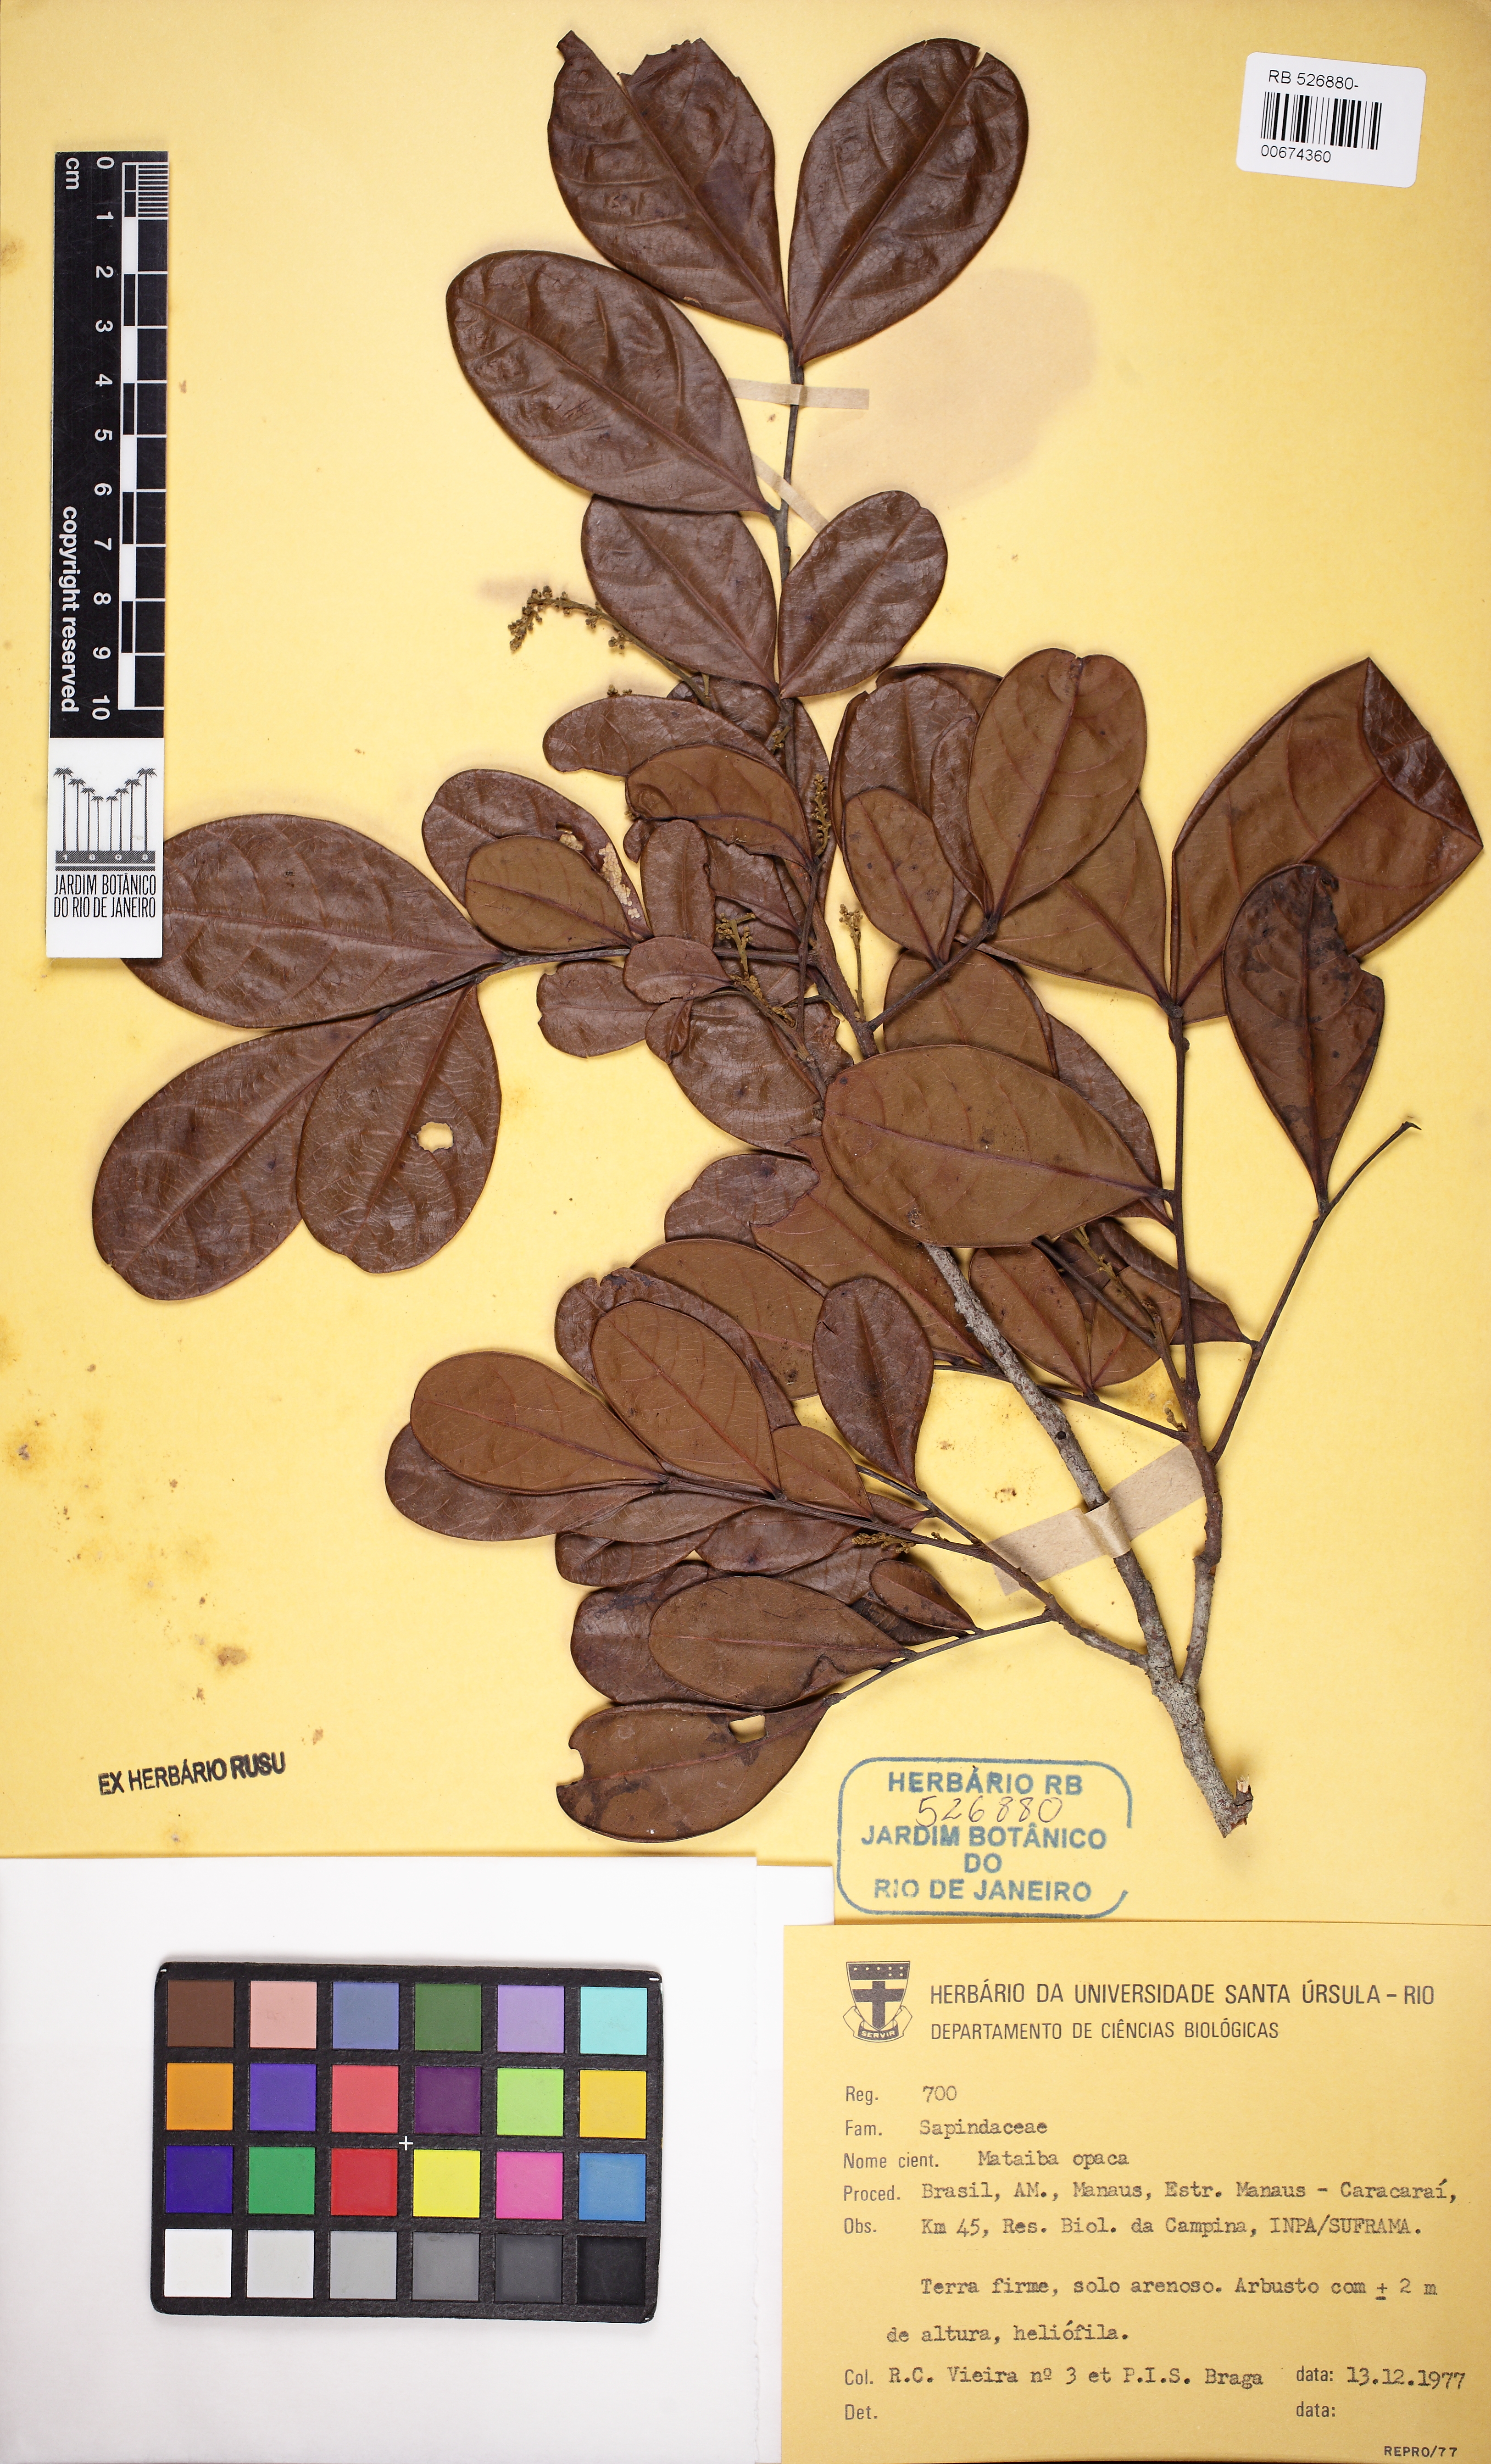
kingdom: Plantae
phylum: Tracheophyta
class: Magnoliopsida
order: Sapindales
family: Sapindaceae
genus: Matayba
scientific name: Matayba opaca
